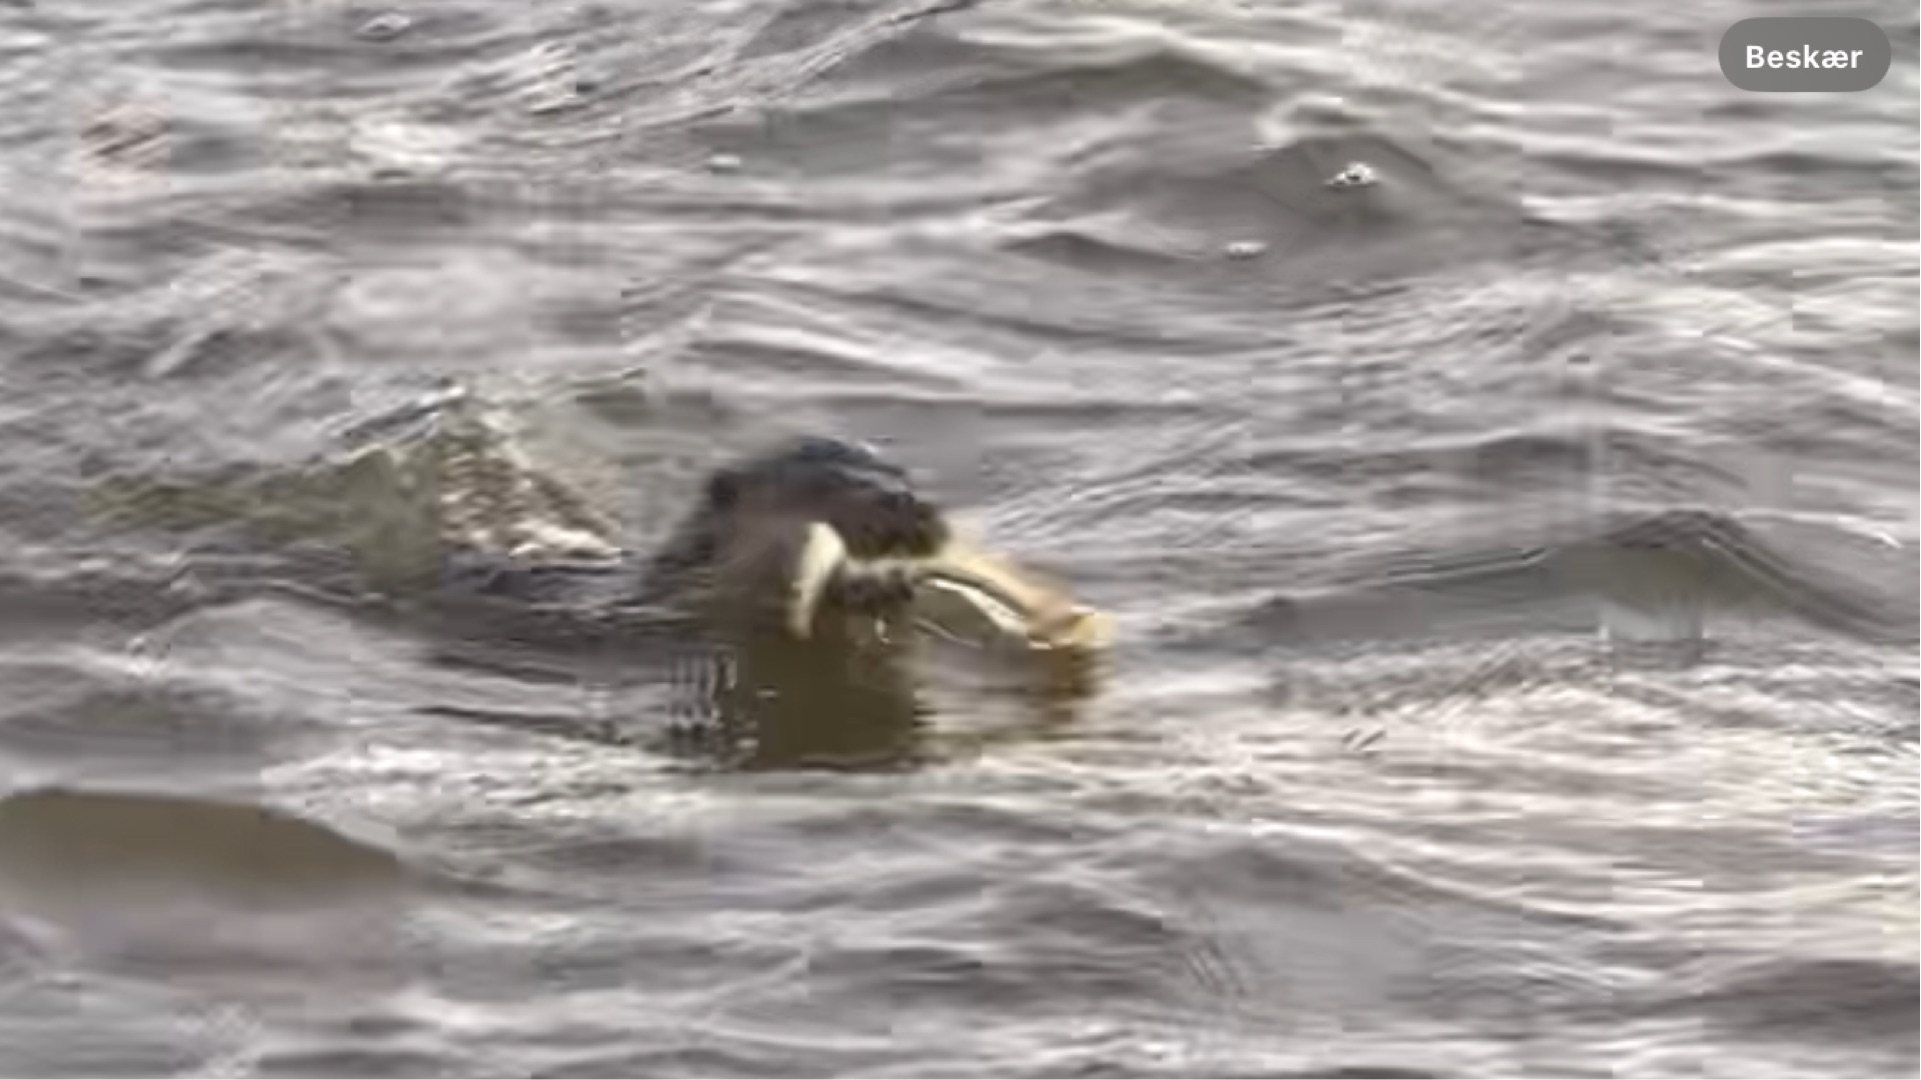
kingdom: Animalia
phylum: Chordata
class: Petromyzonti
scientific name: Petromyzonti
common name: Lampretter
